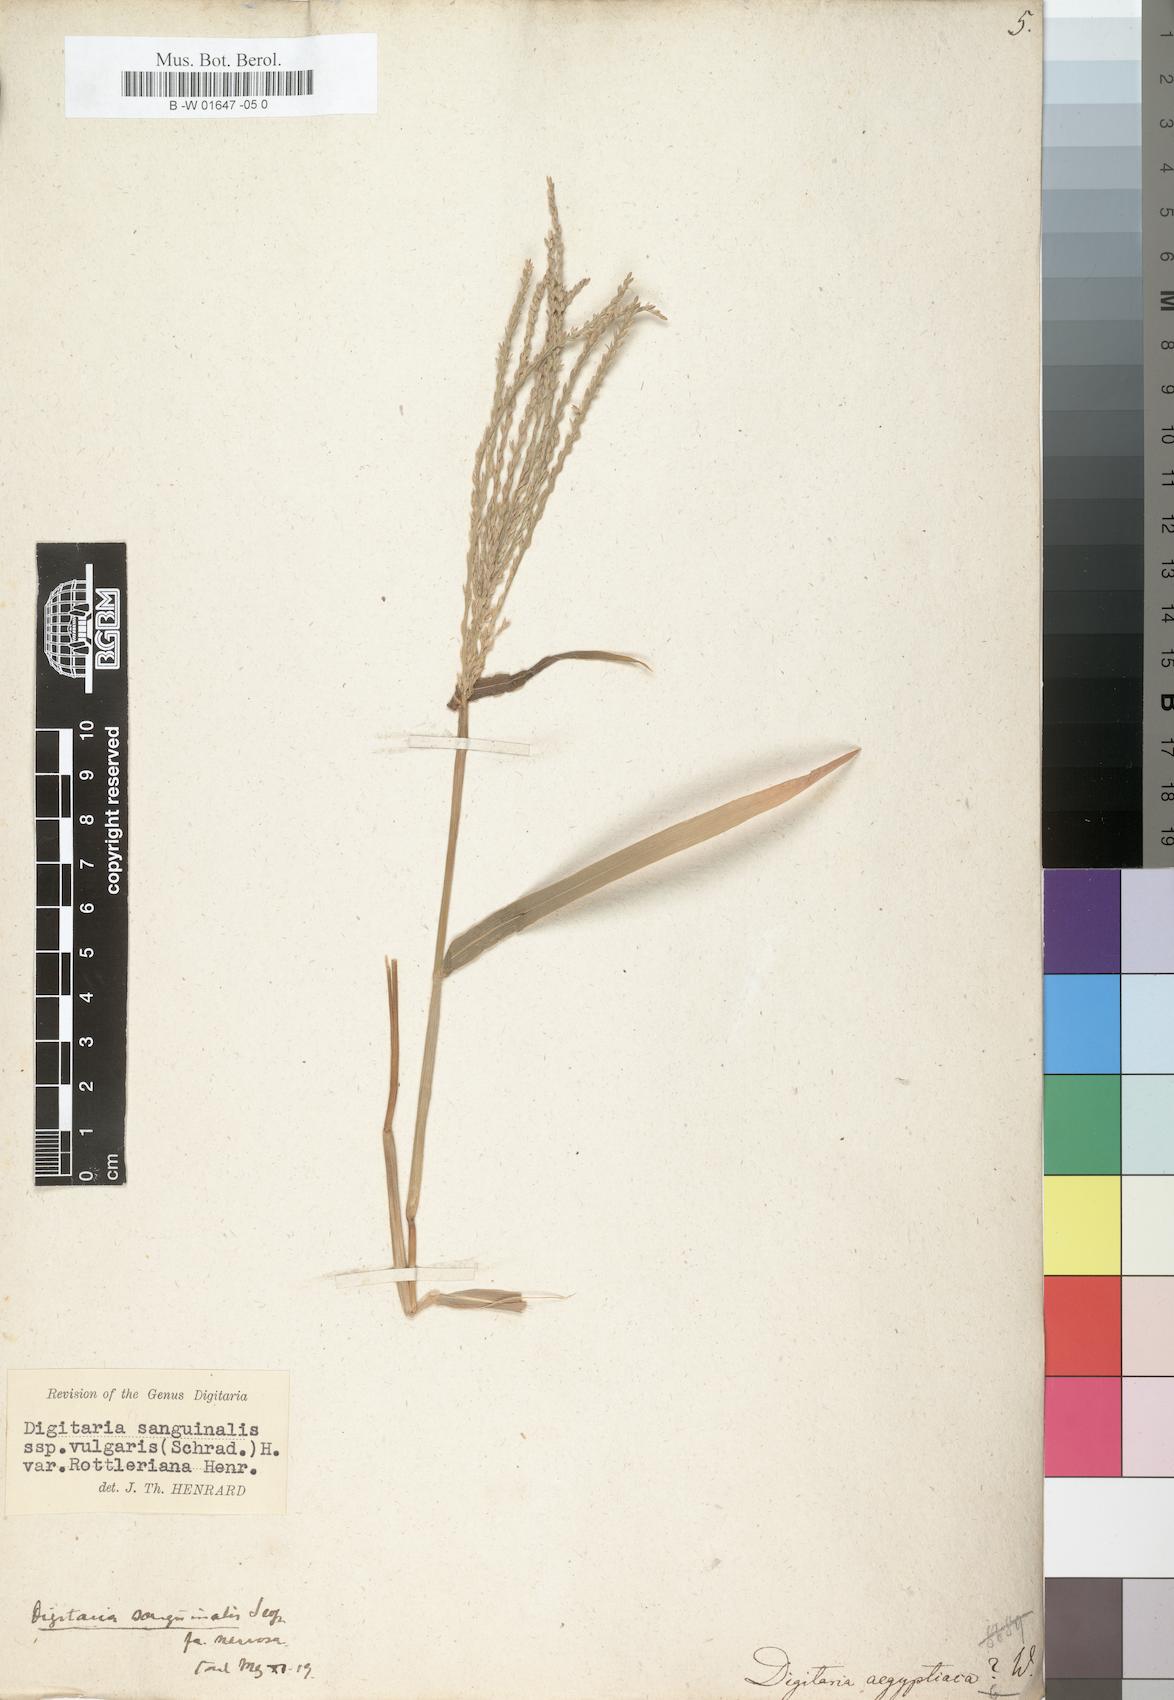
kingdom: Plantae
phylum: Tracheophyta
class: Liliopsida
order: Poales
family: Poaceae
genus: Digitaria
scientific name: Digitaria sanguinalis
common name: Hairy crabgrass
